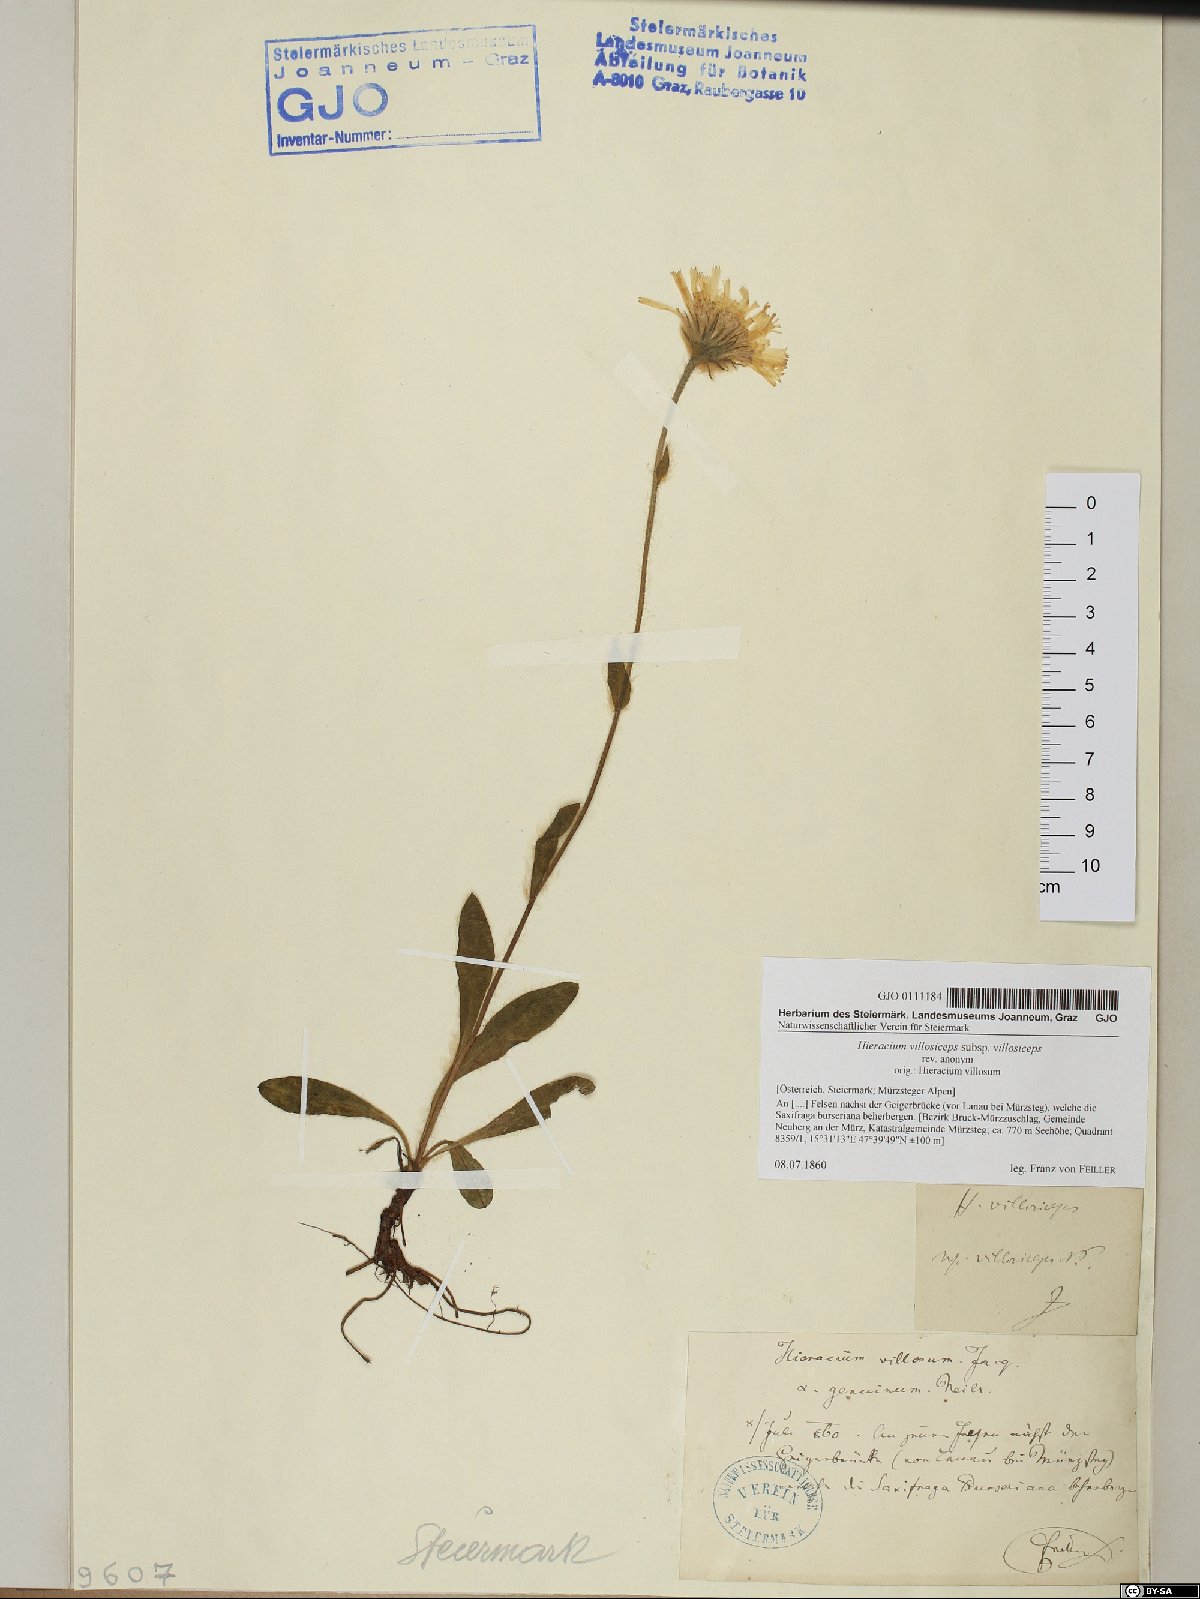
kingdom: Plantae
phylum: Tracheophyta
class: Magnoliopsida
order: Asterales
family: Asteraceae
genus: Hieracium
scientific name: Hieracium pilosum
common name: Fimbriate-pitted hawkweed
